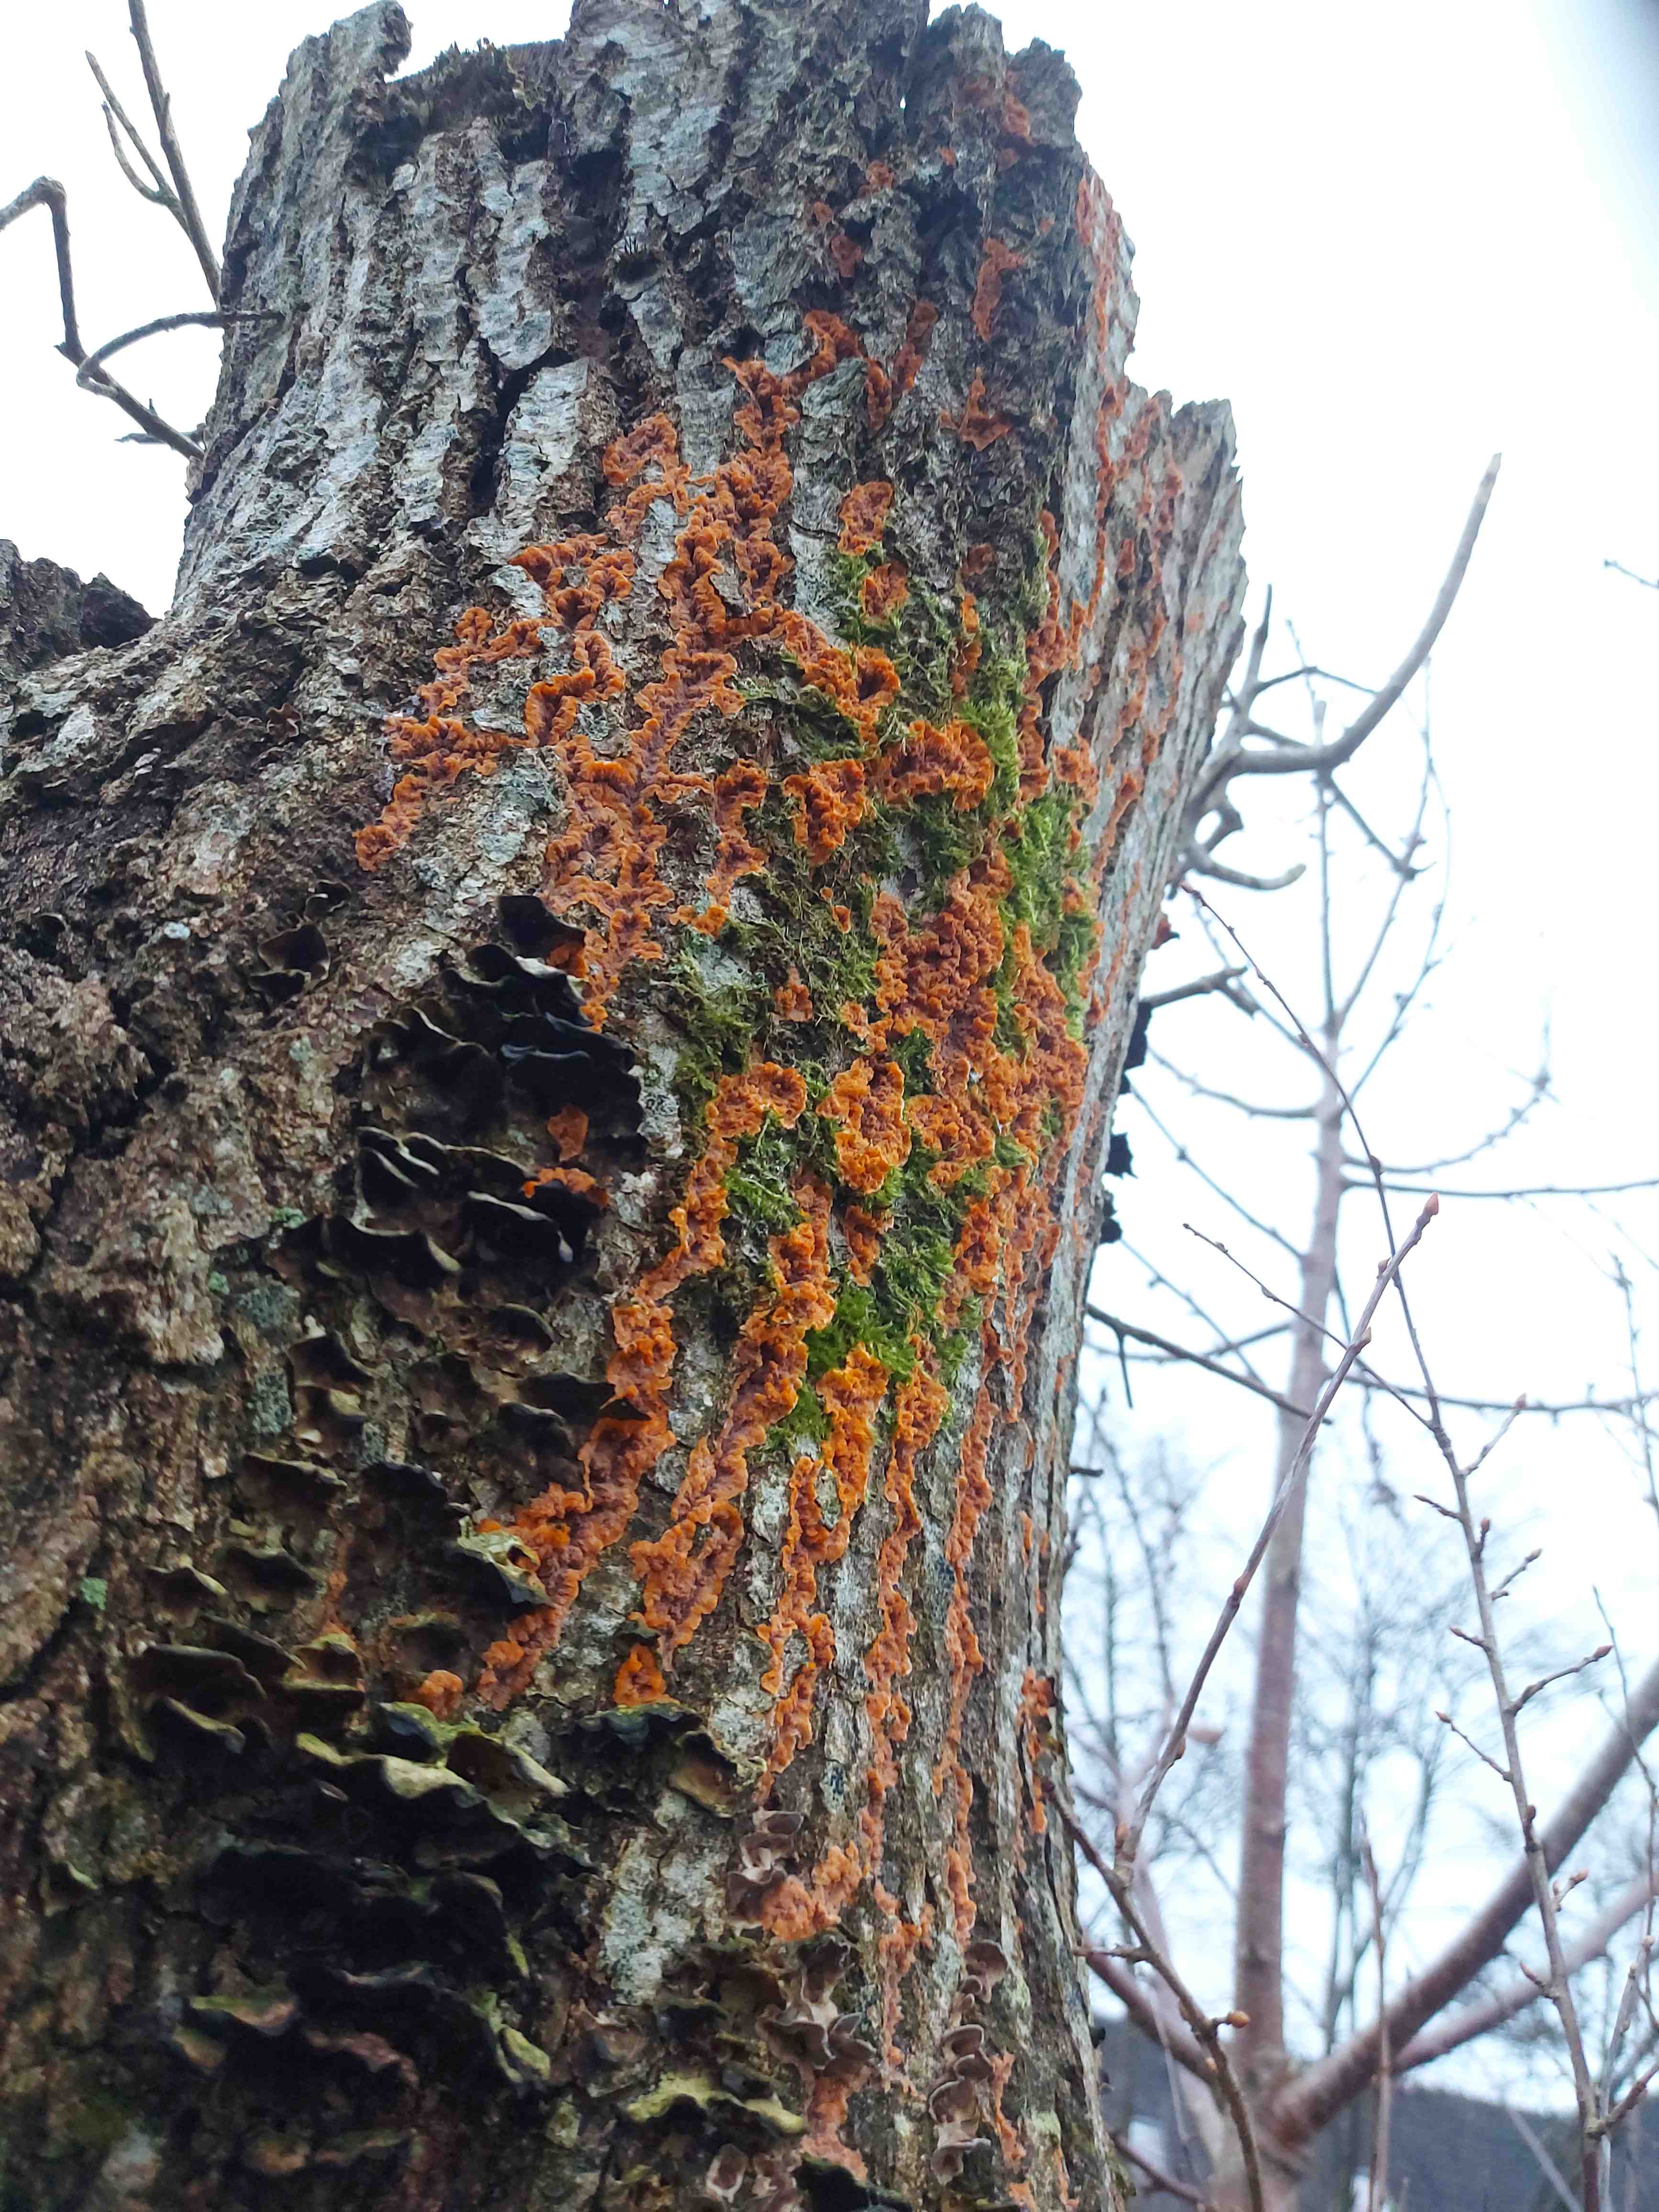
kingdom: Fungi
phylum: Basidiomycota
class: Agaricomycetes
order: Polyporales
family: Meruliaceae
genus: Phlebia
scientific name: Phlebia radiata
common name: stråle-åresvamp
